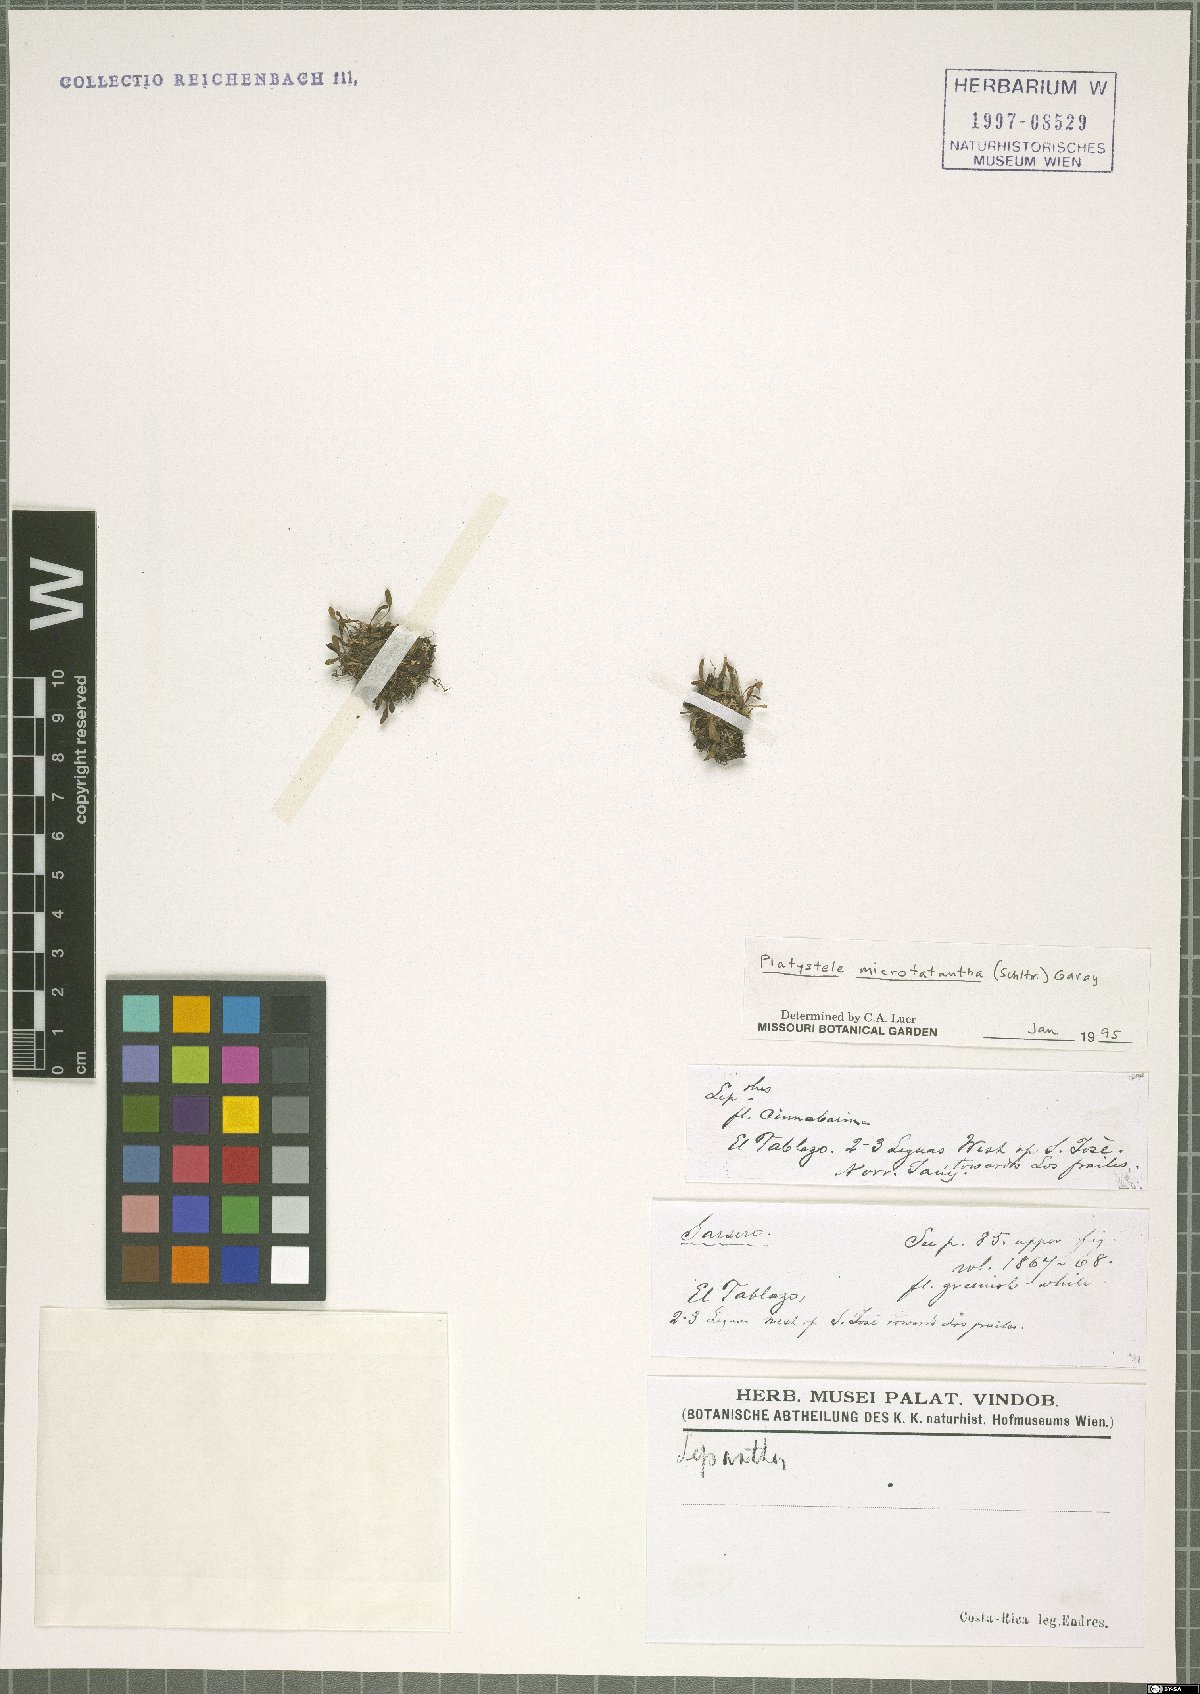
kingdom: Plantae
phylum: Tracheophyta
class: Liliopsida
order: Asparagales
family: Orchidaceae
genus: Platystele
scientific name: Platystele microtatantha
